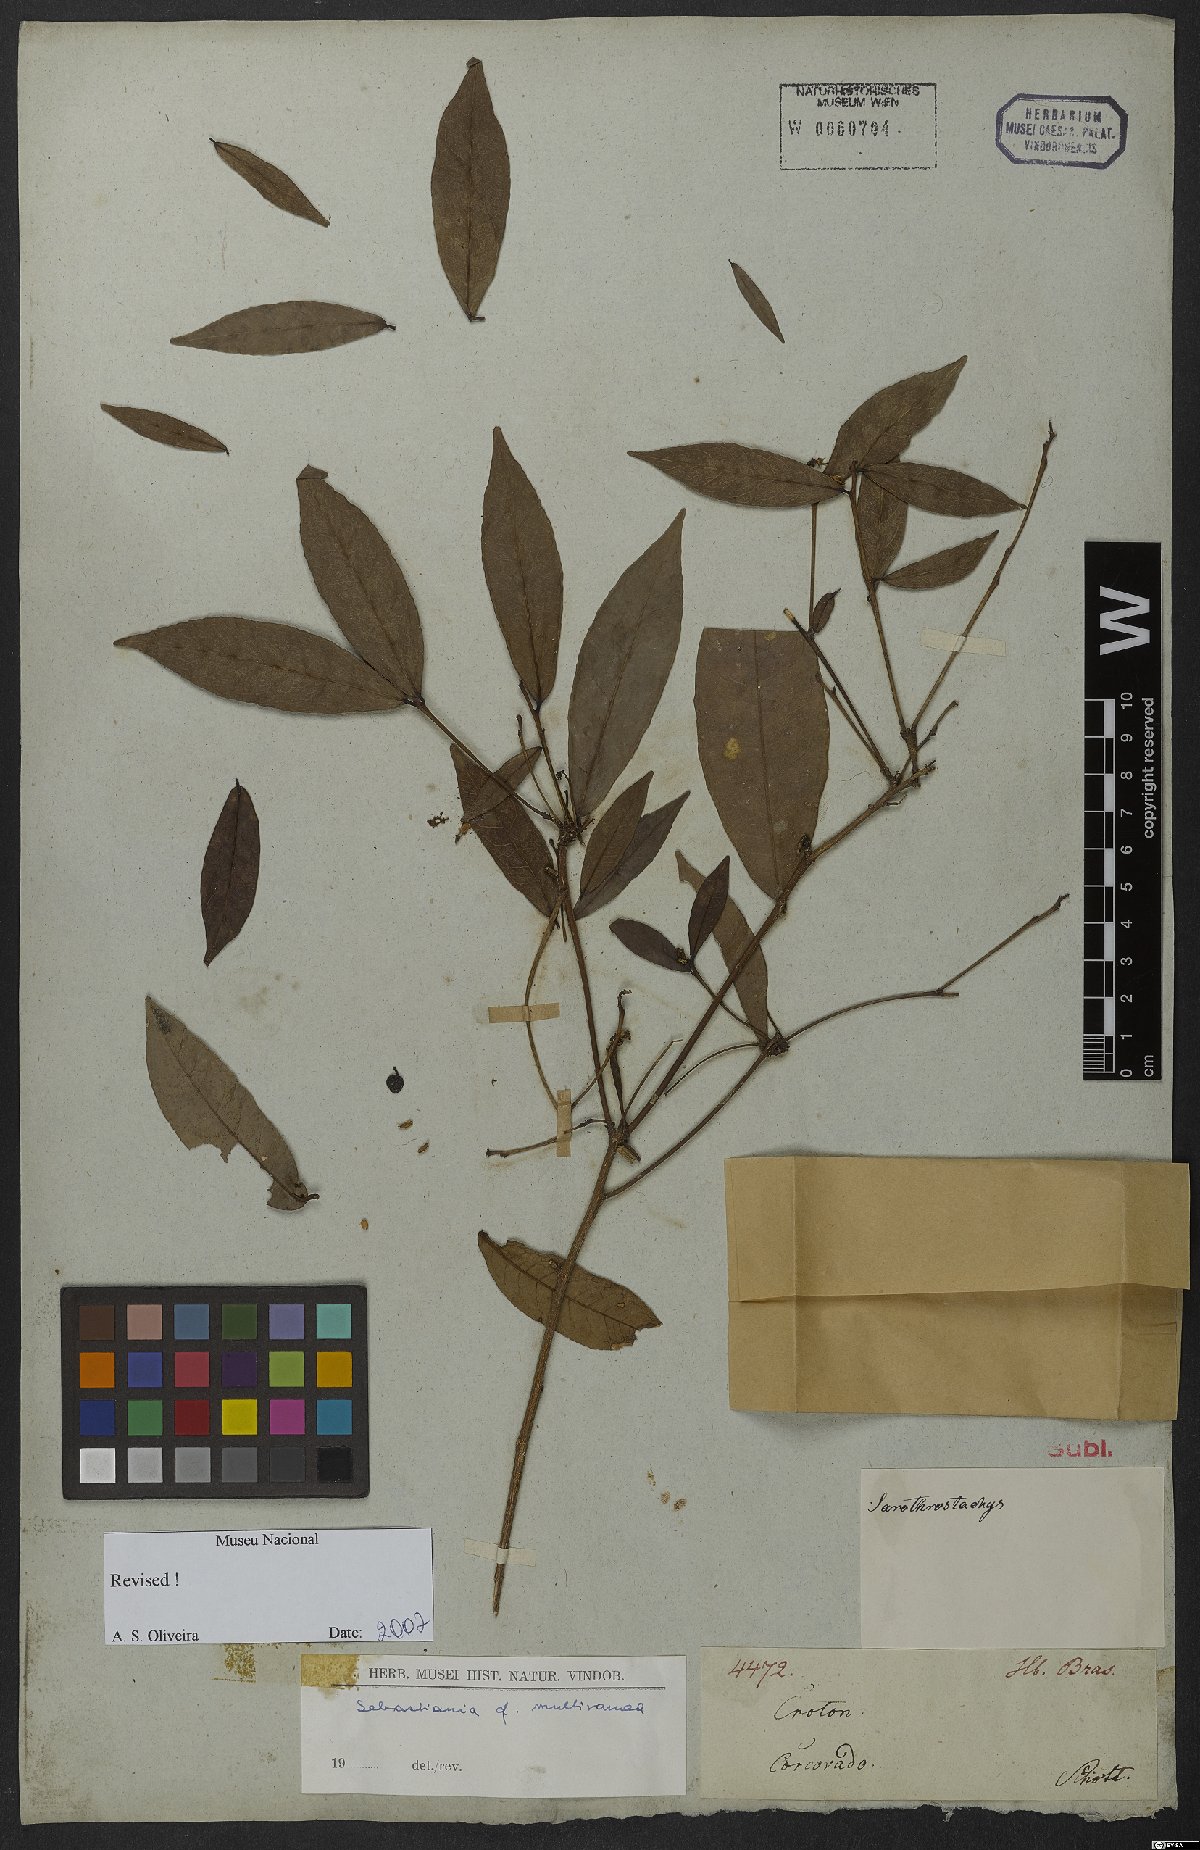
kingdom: Plantae
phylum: Tracheophyta
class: Magnoliopsida
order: Malpighiales
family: Euphorbiaceae
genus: Gymnanthes
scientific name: Gymnanthes glabrata
